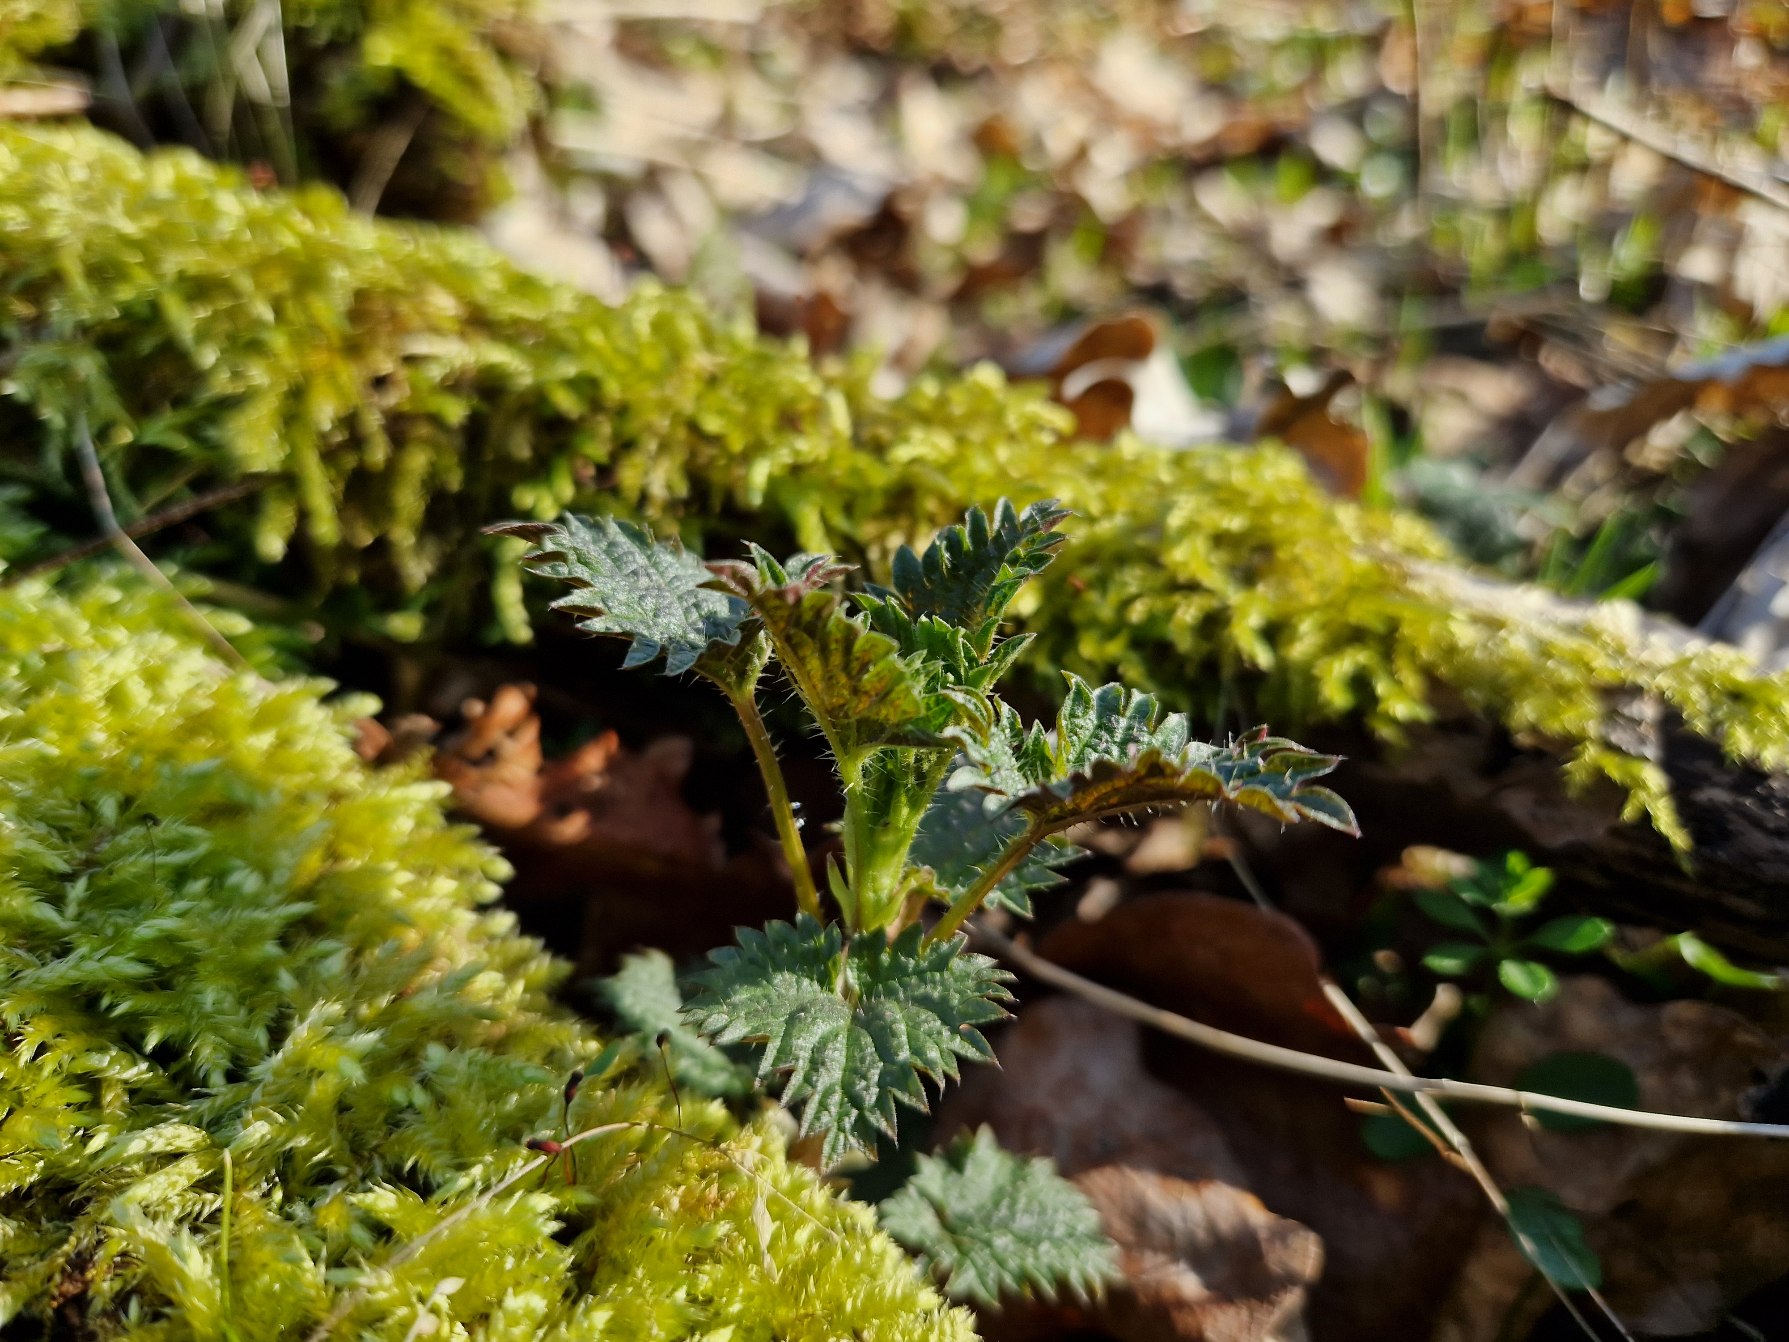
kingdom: Plantae
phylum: Tracheophyta
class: Magnoliopsida
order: Rosales
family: Urticaceae
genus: Urtica
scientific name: Urtica dioica
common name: Stor nælde
